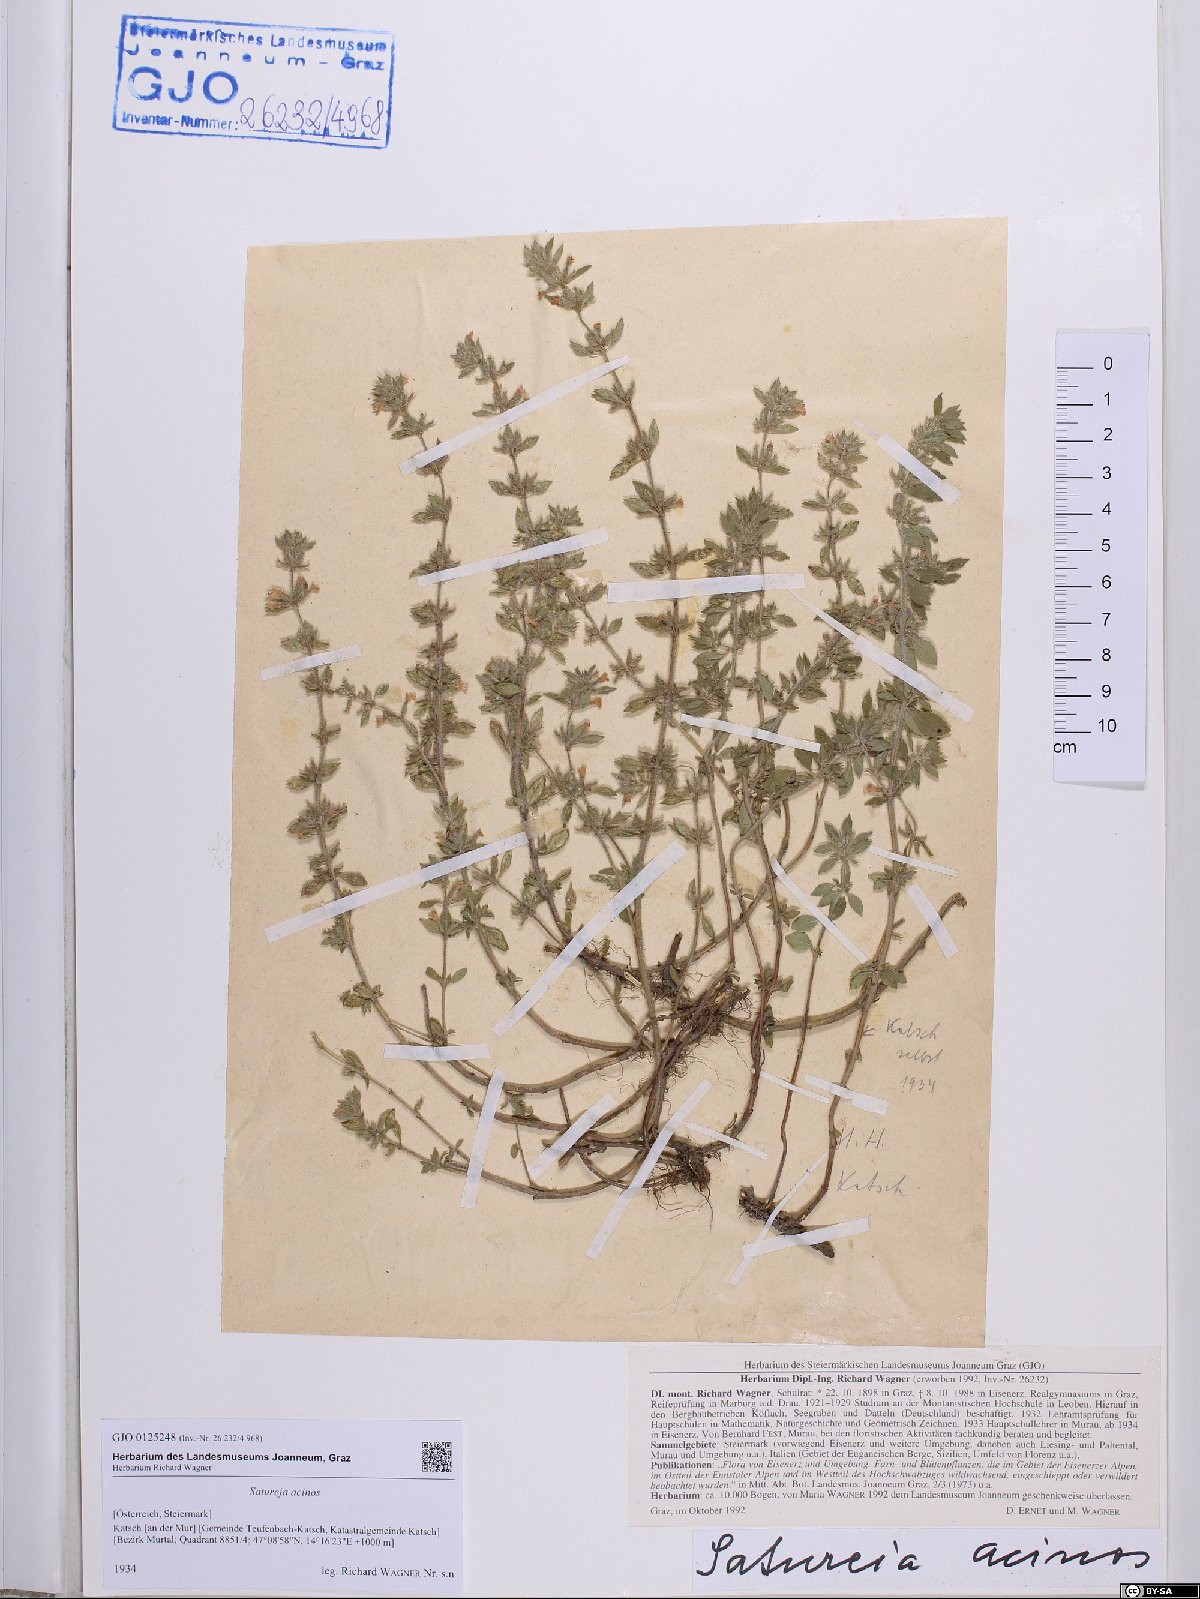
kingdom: Plantae
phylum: Tracheophyta
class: Magnoliopsida
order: Lamiales
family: Lamiaceae
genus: Clinopodium
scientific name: Clinopodium acinos
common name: Basil thyme
